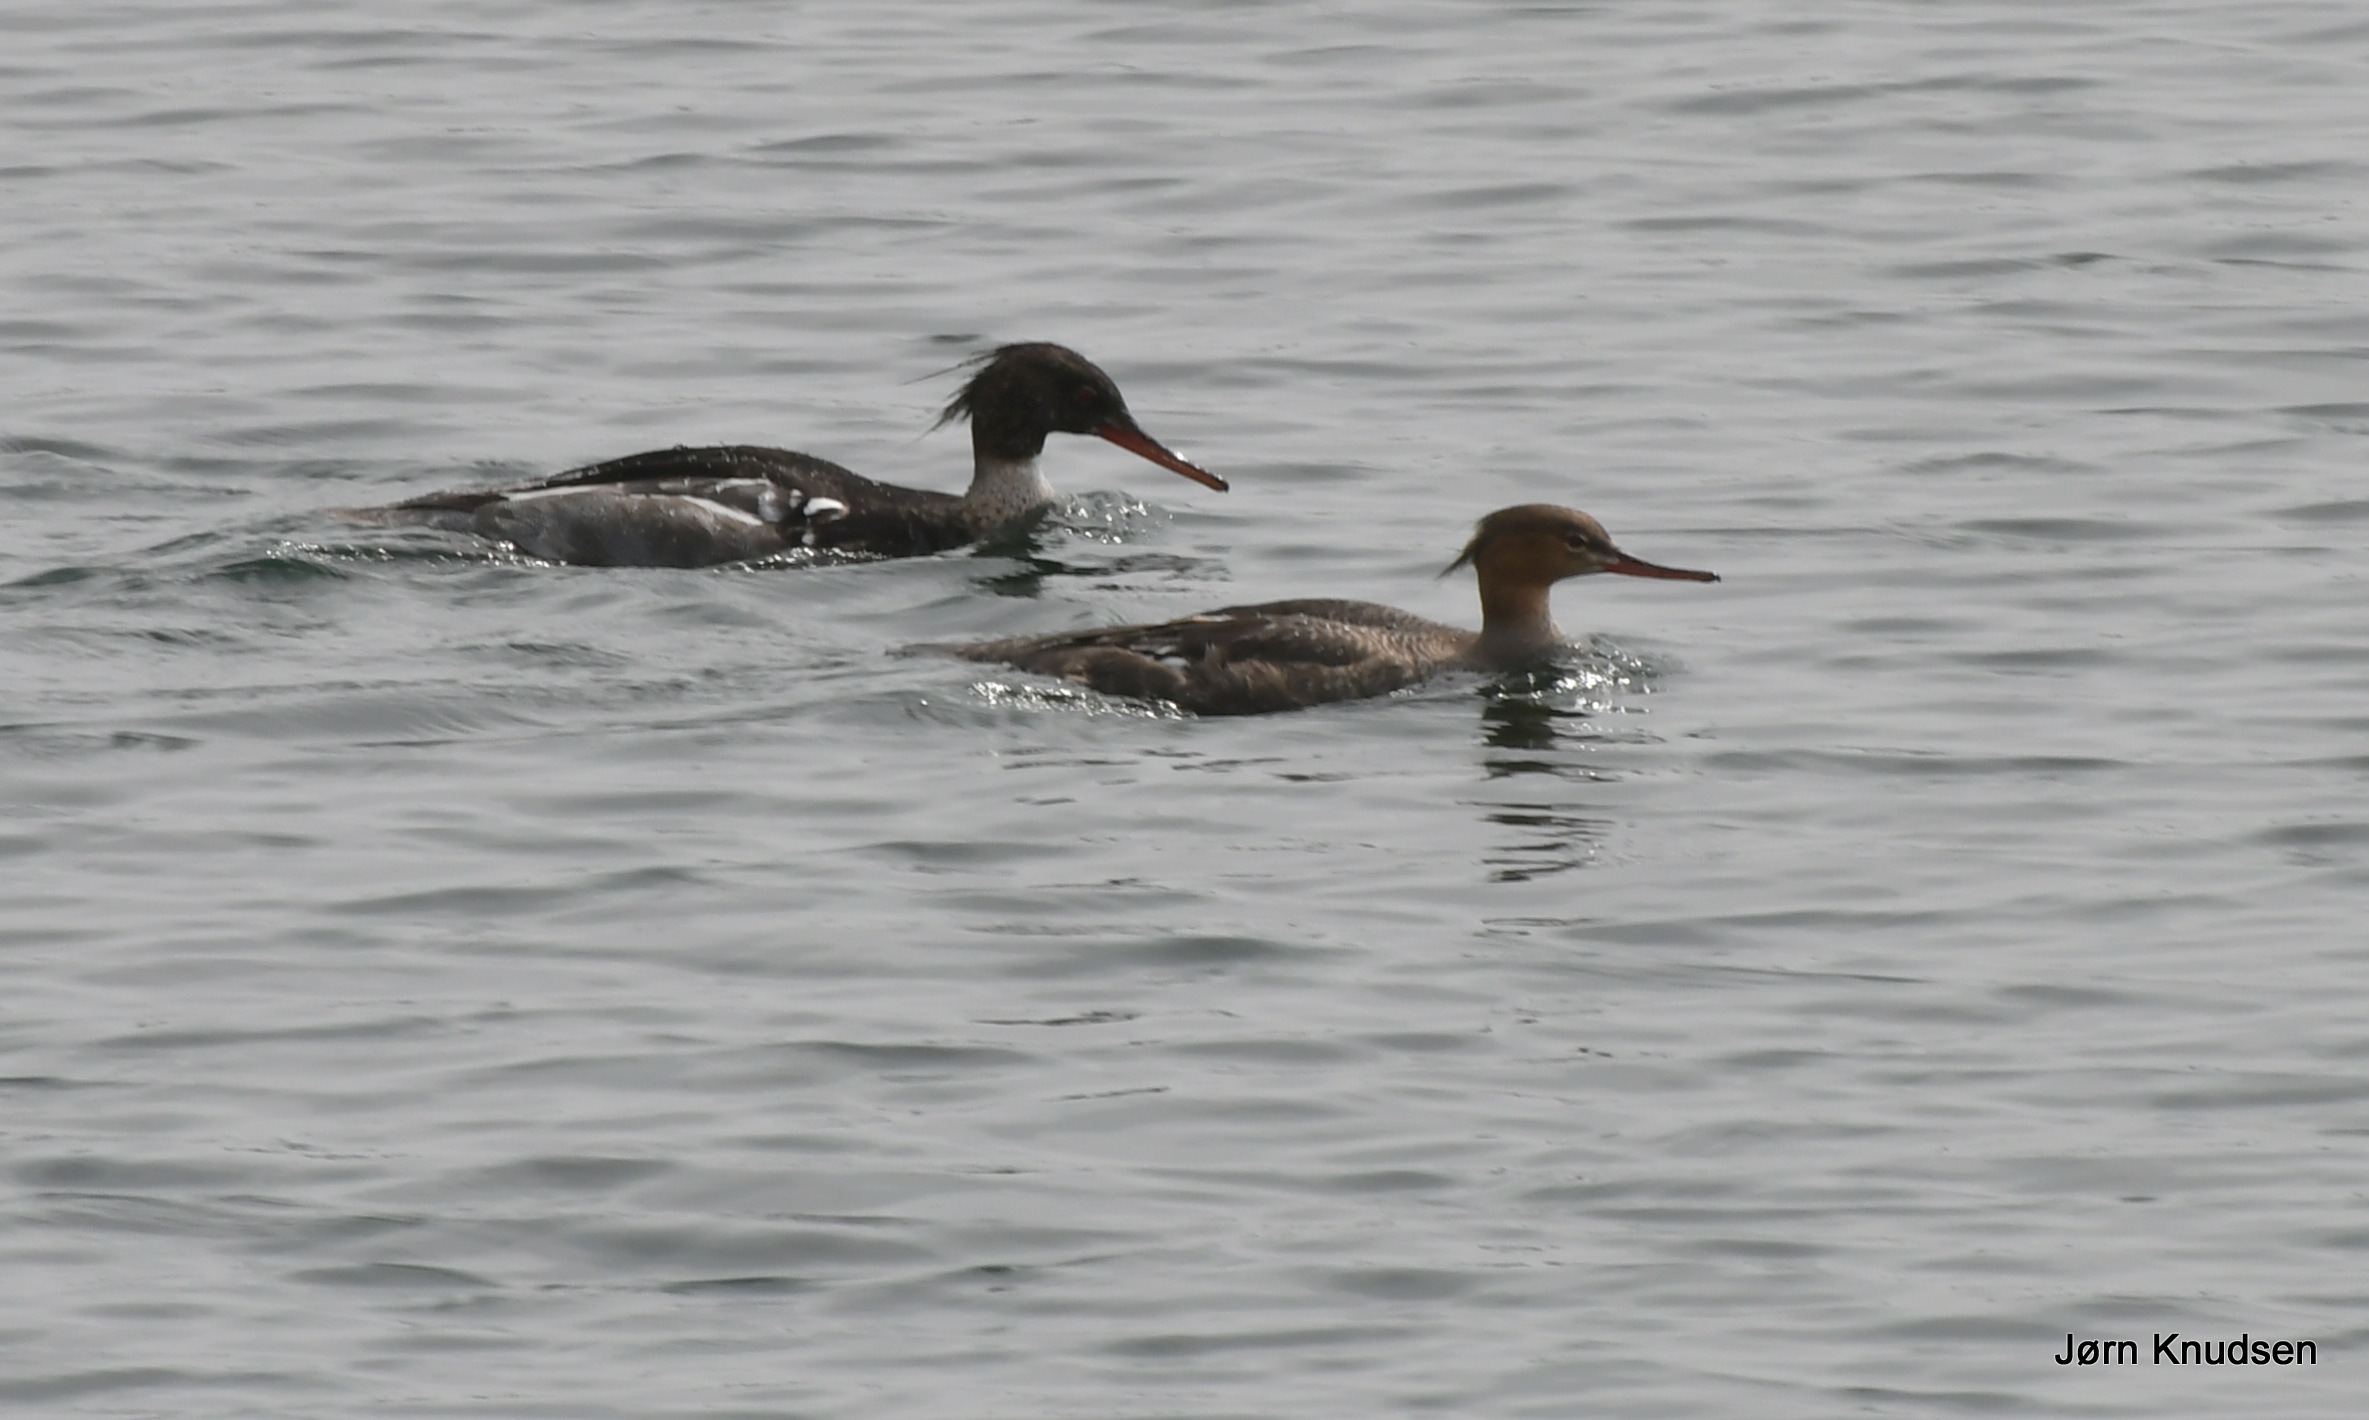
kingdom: Animalia
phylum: Chordata
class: Aves
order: Anseriformes
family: Anatidae
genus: Mergus
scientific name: Mergus serrator
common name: Toppet skallesluger
